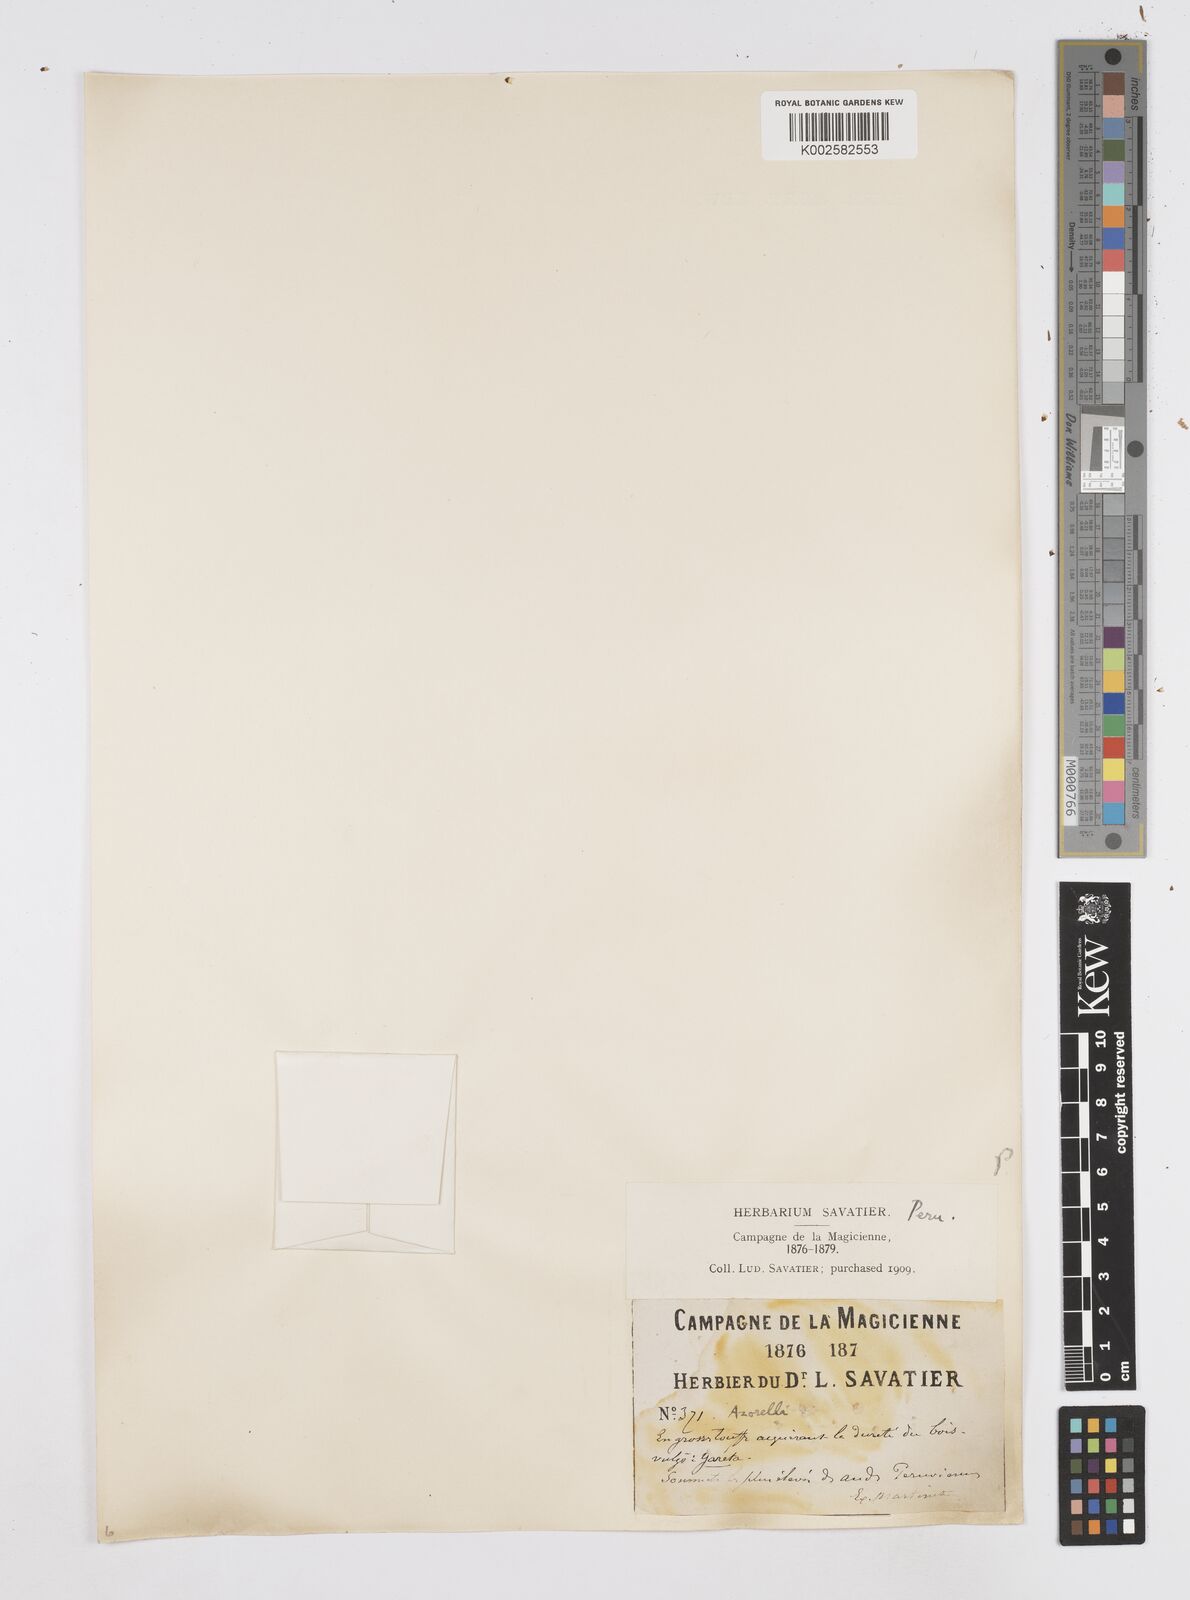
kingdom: Plantae
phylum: Tracheophyta
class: Magnoliopsida
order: Apiales
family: Apiaceae
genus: Azorella
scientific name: Azorella compacta
